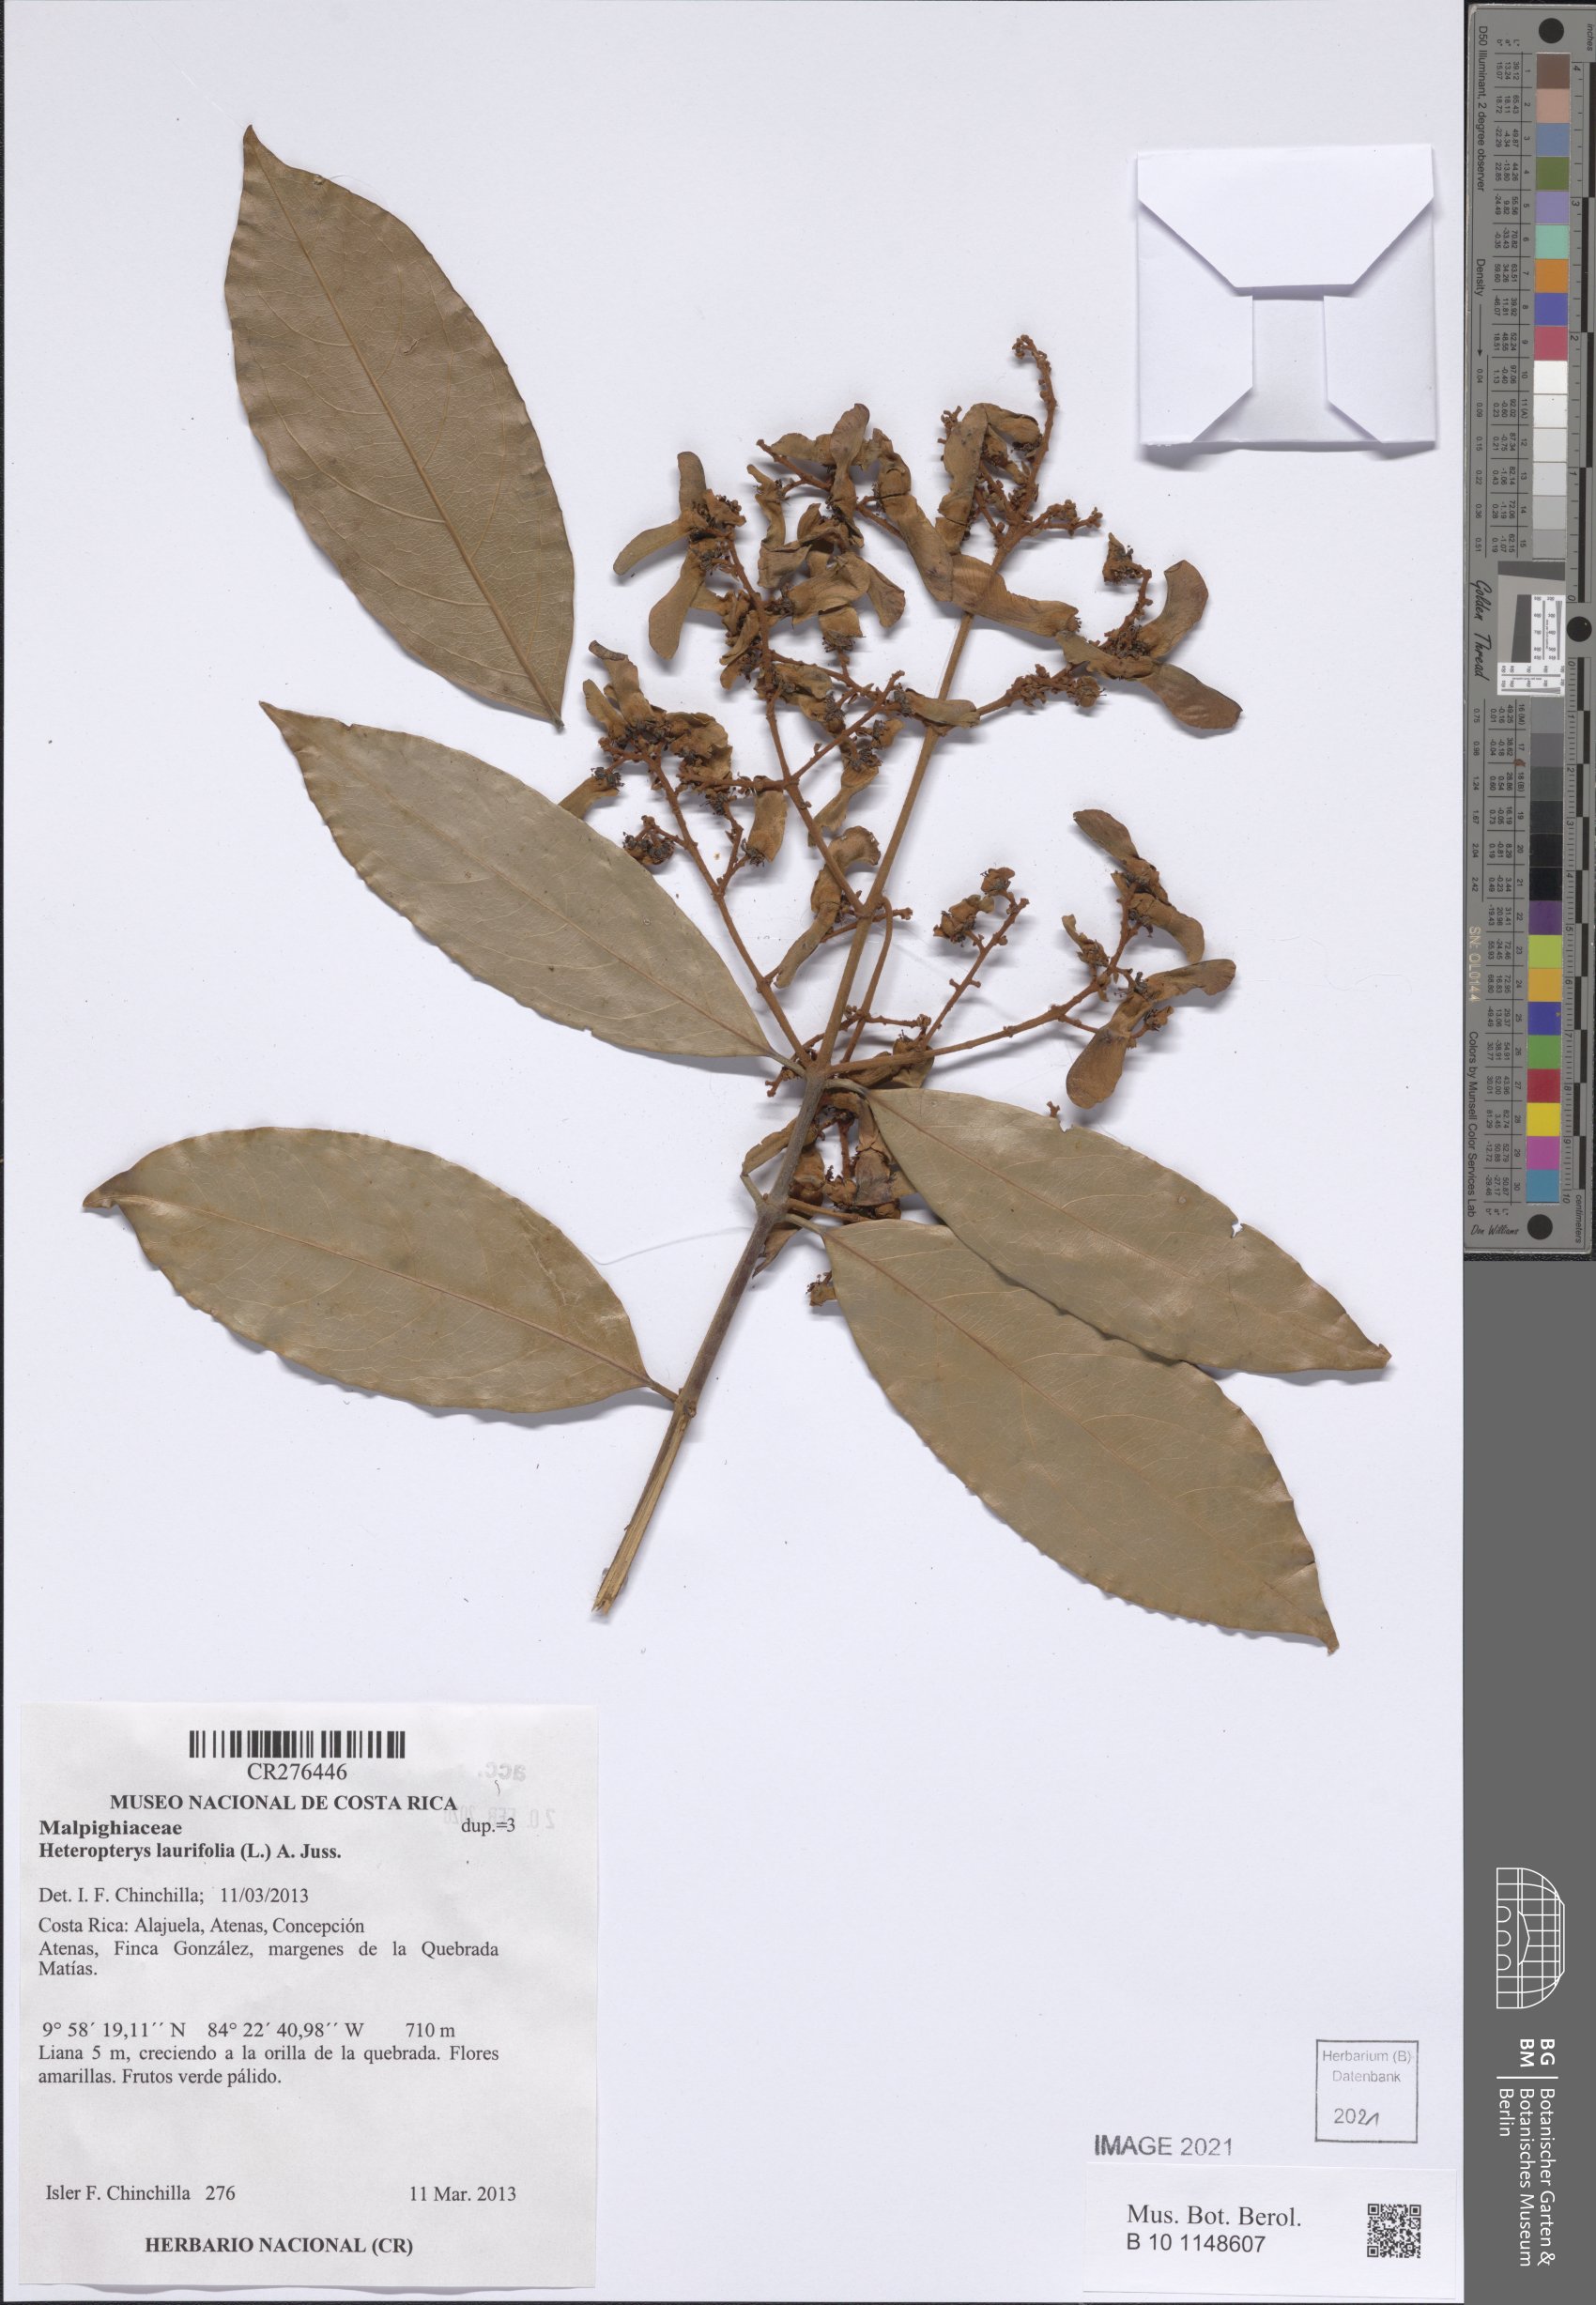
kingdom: Plantae
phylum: Tracheophyta
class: Magnoliopsida
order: Malpighiales
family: Malpighiaceae
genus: Heteropterys
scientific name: Heteropterys laurifolia
